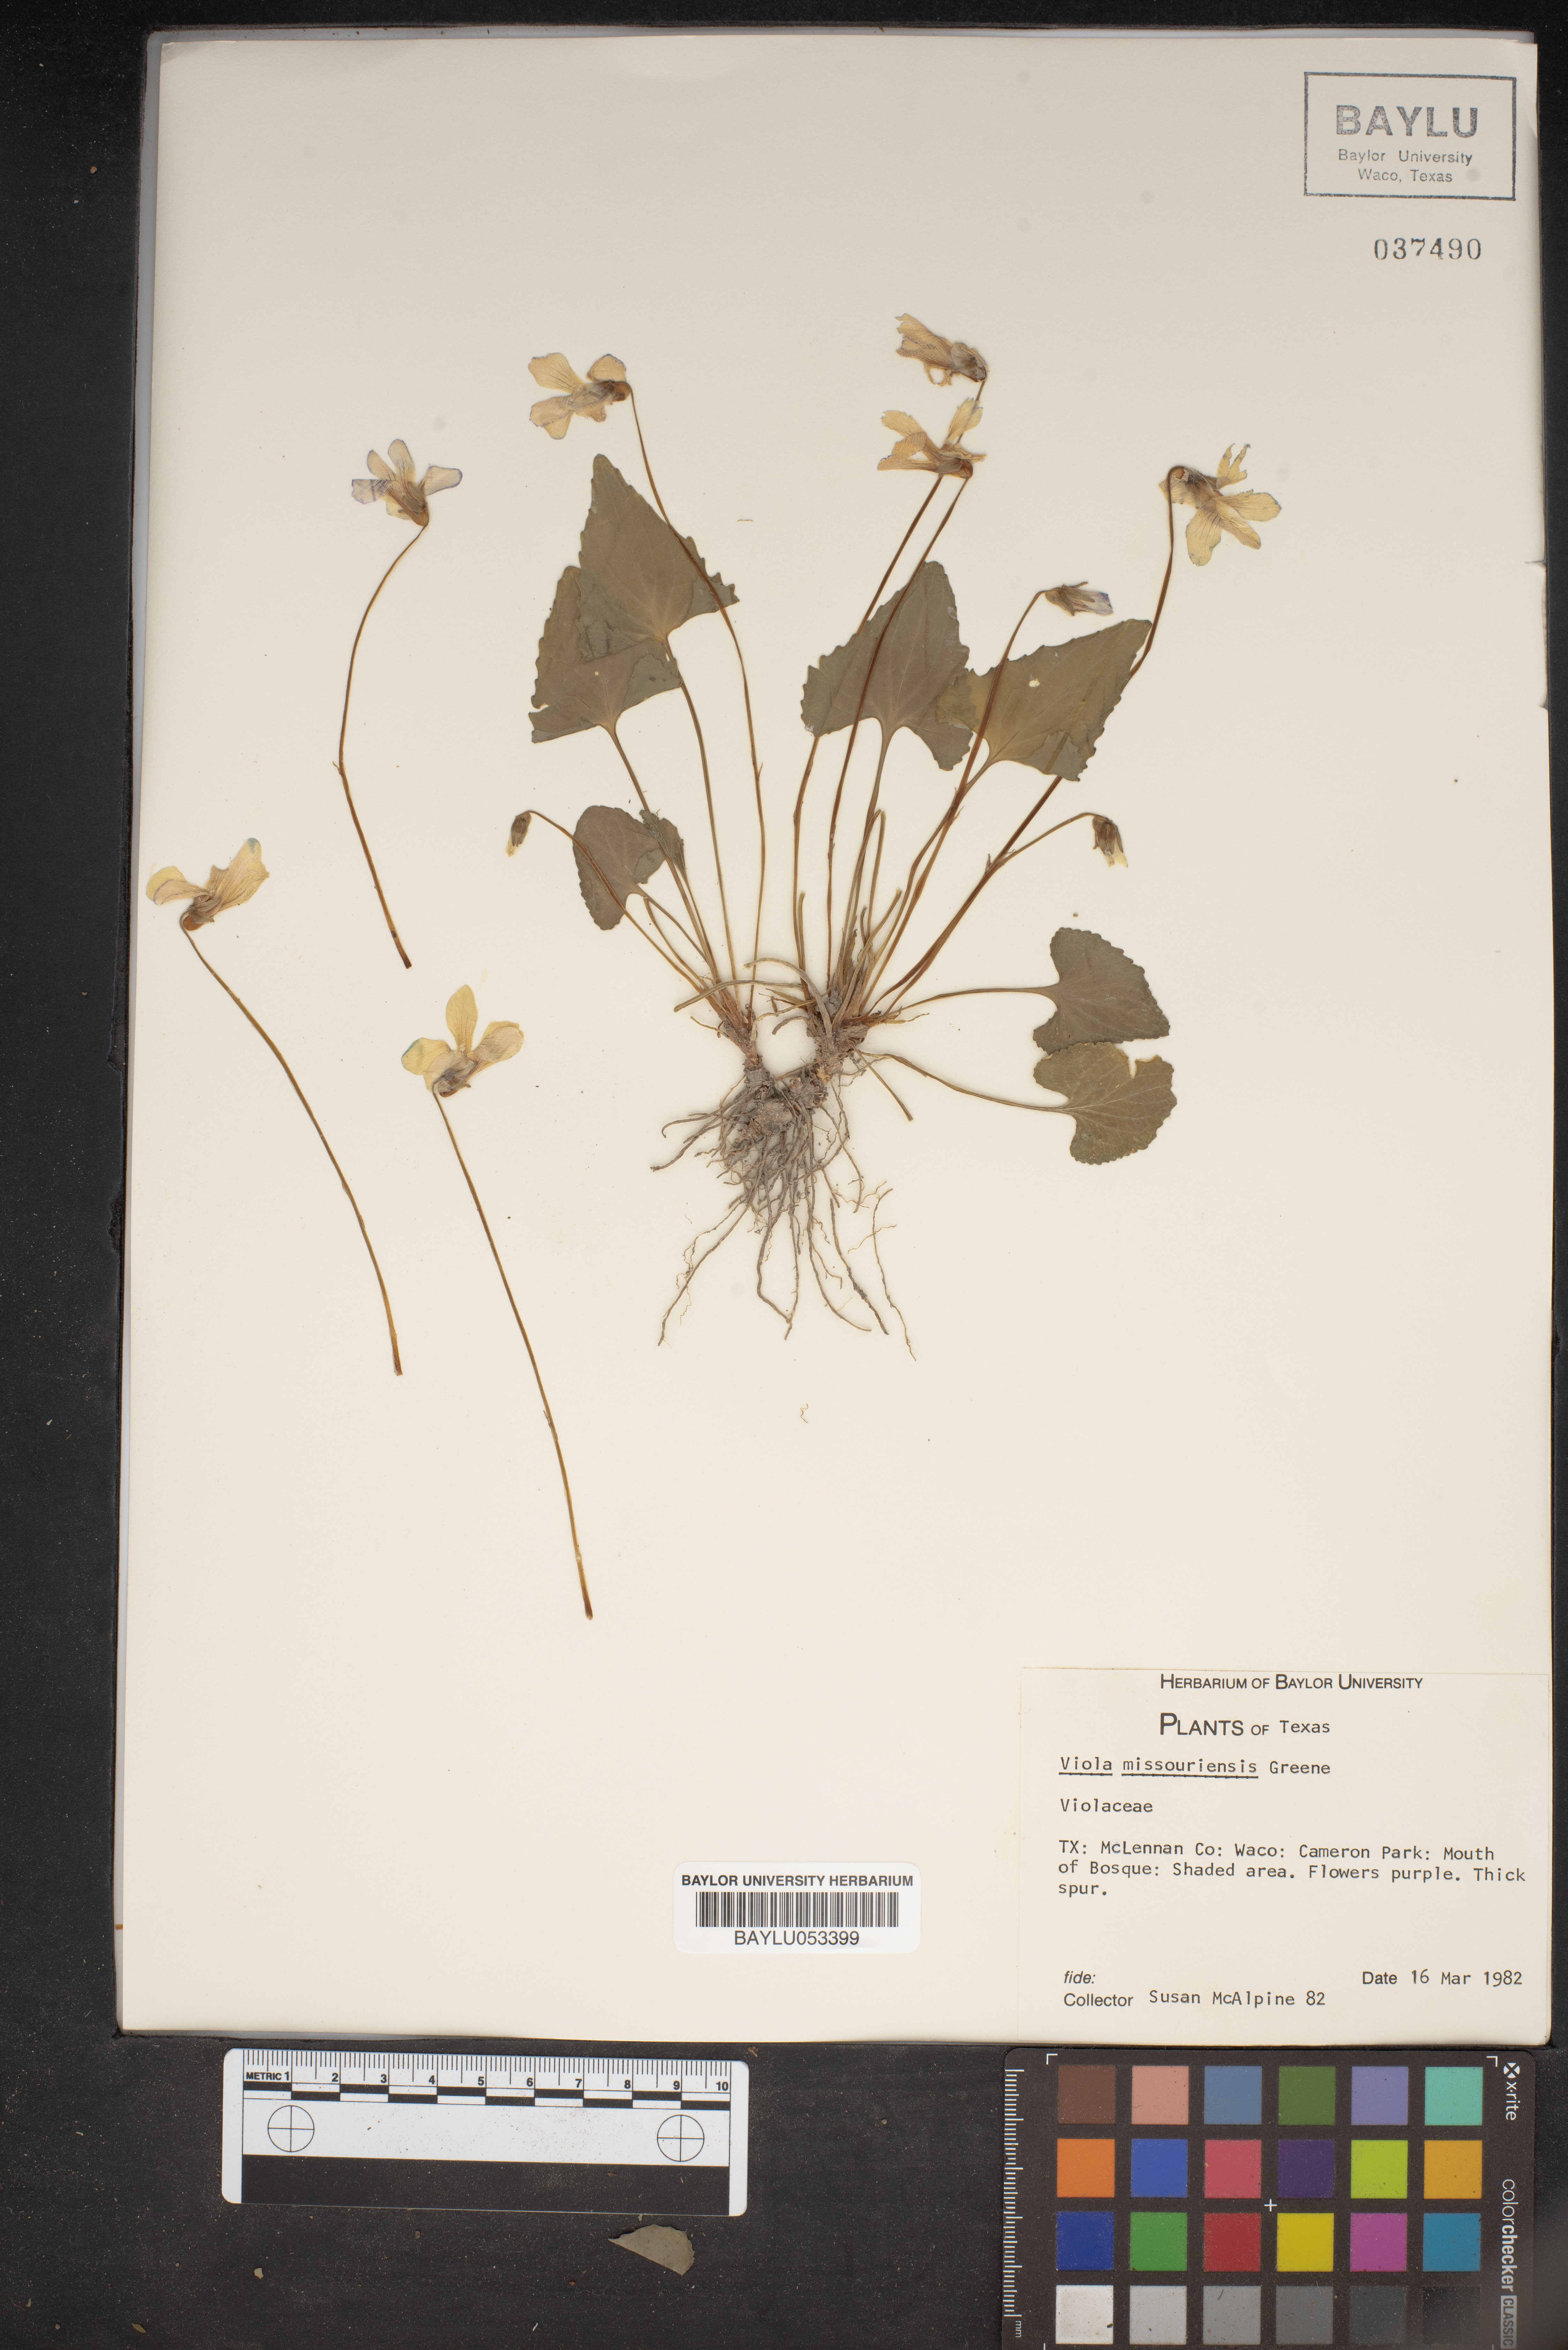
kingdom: Plantae
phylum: Tracheophyta
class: Magnoliopsida
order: Malpighiales
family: Violaceae
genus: Viola
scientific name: Viola missouriensis
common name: Missouri violet
